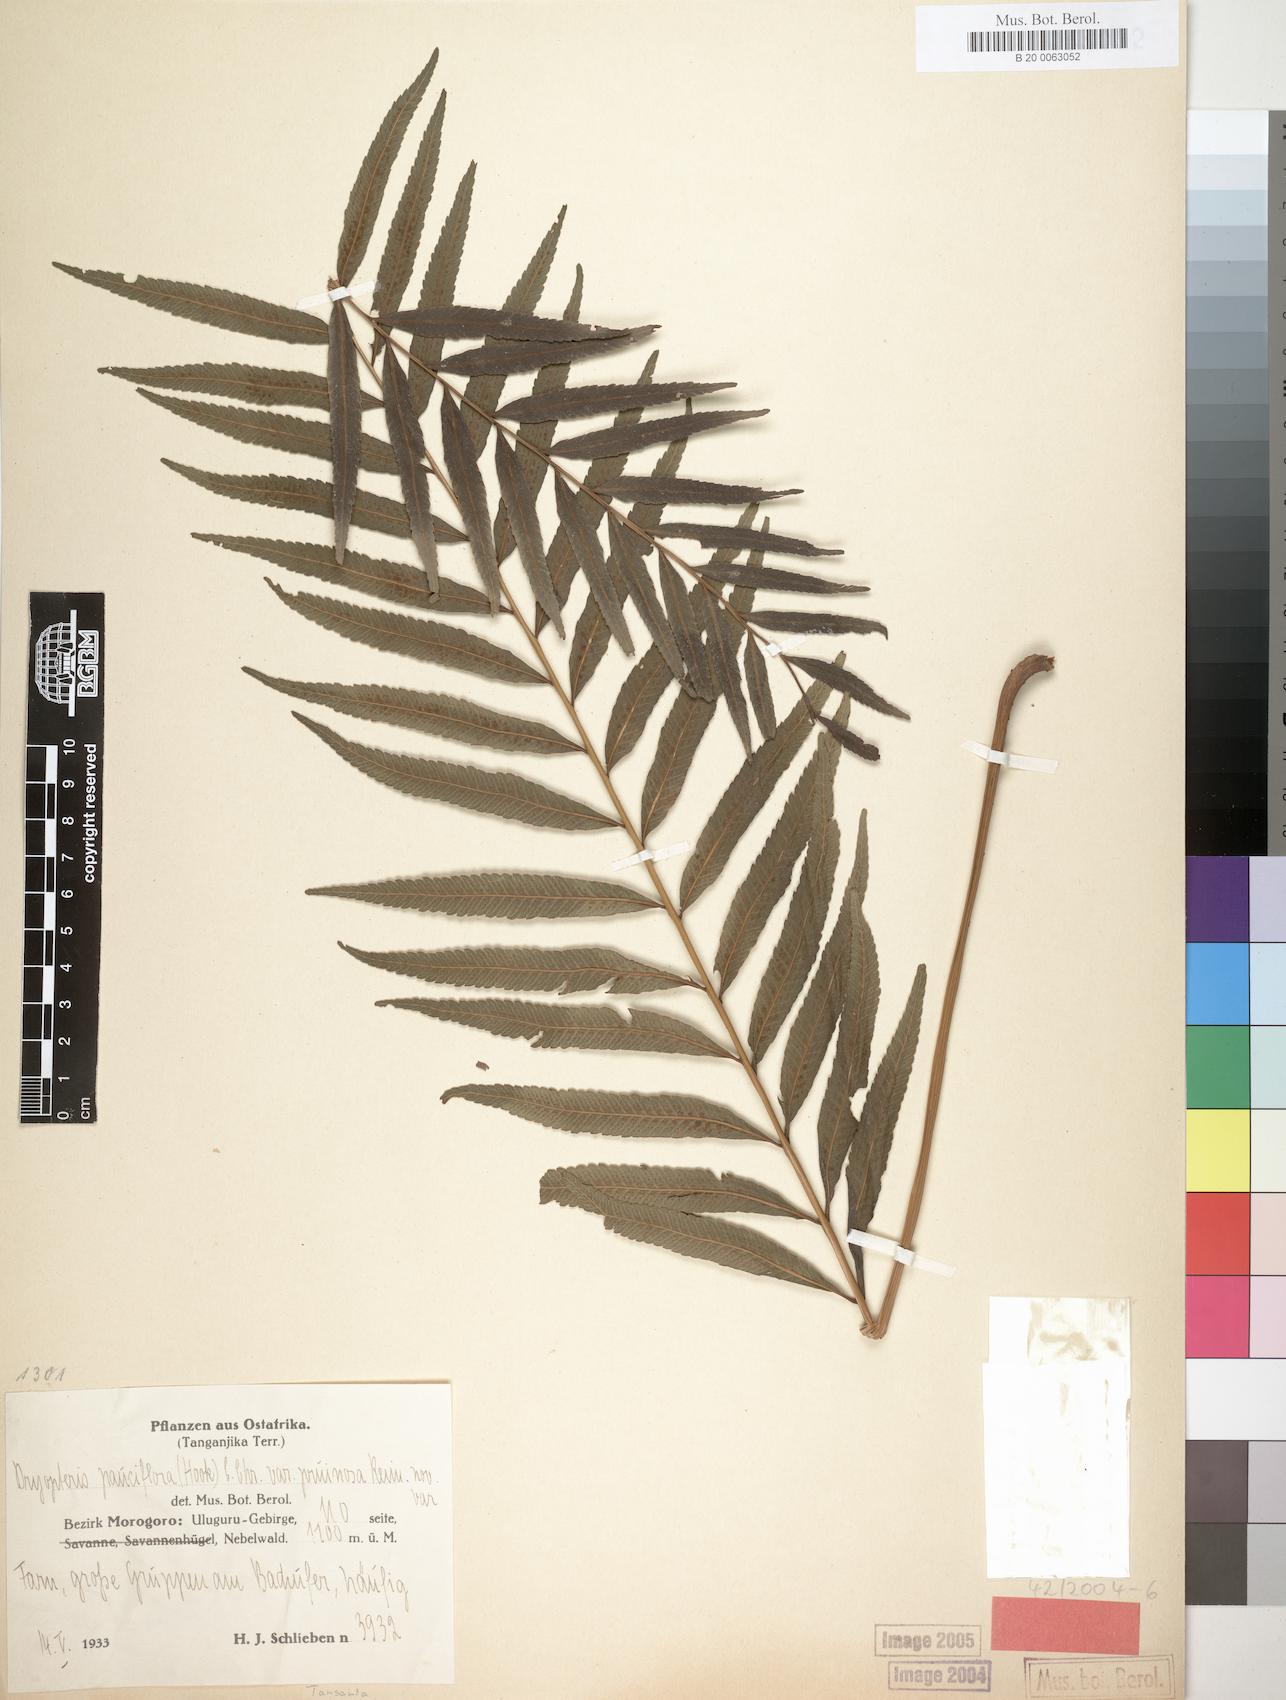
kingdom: Plantae
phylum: Tracheophyta
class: Polypodiopsida
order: Polypodiales
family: Thelypteridaceae
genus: Menisorus
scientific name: Menisorus pauciflorus
